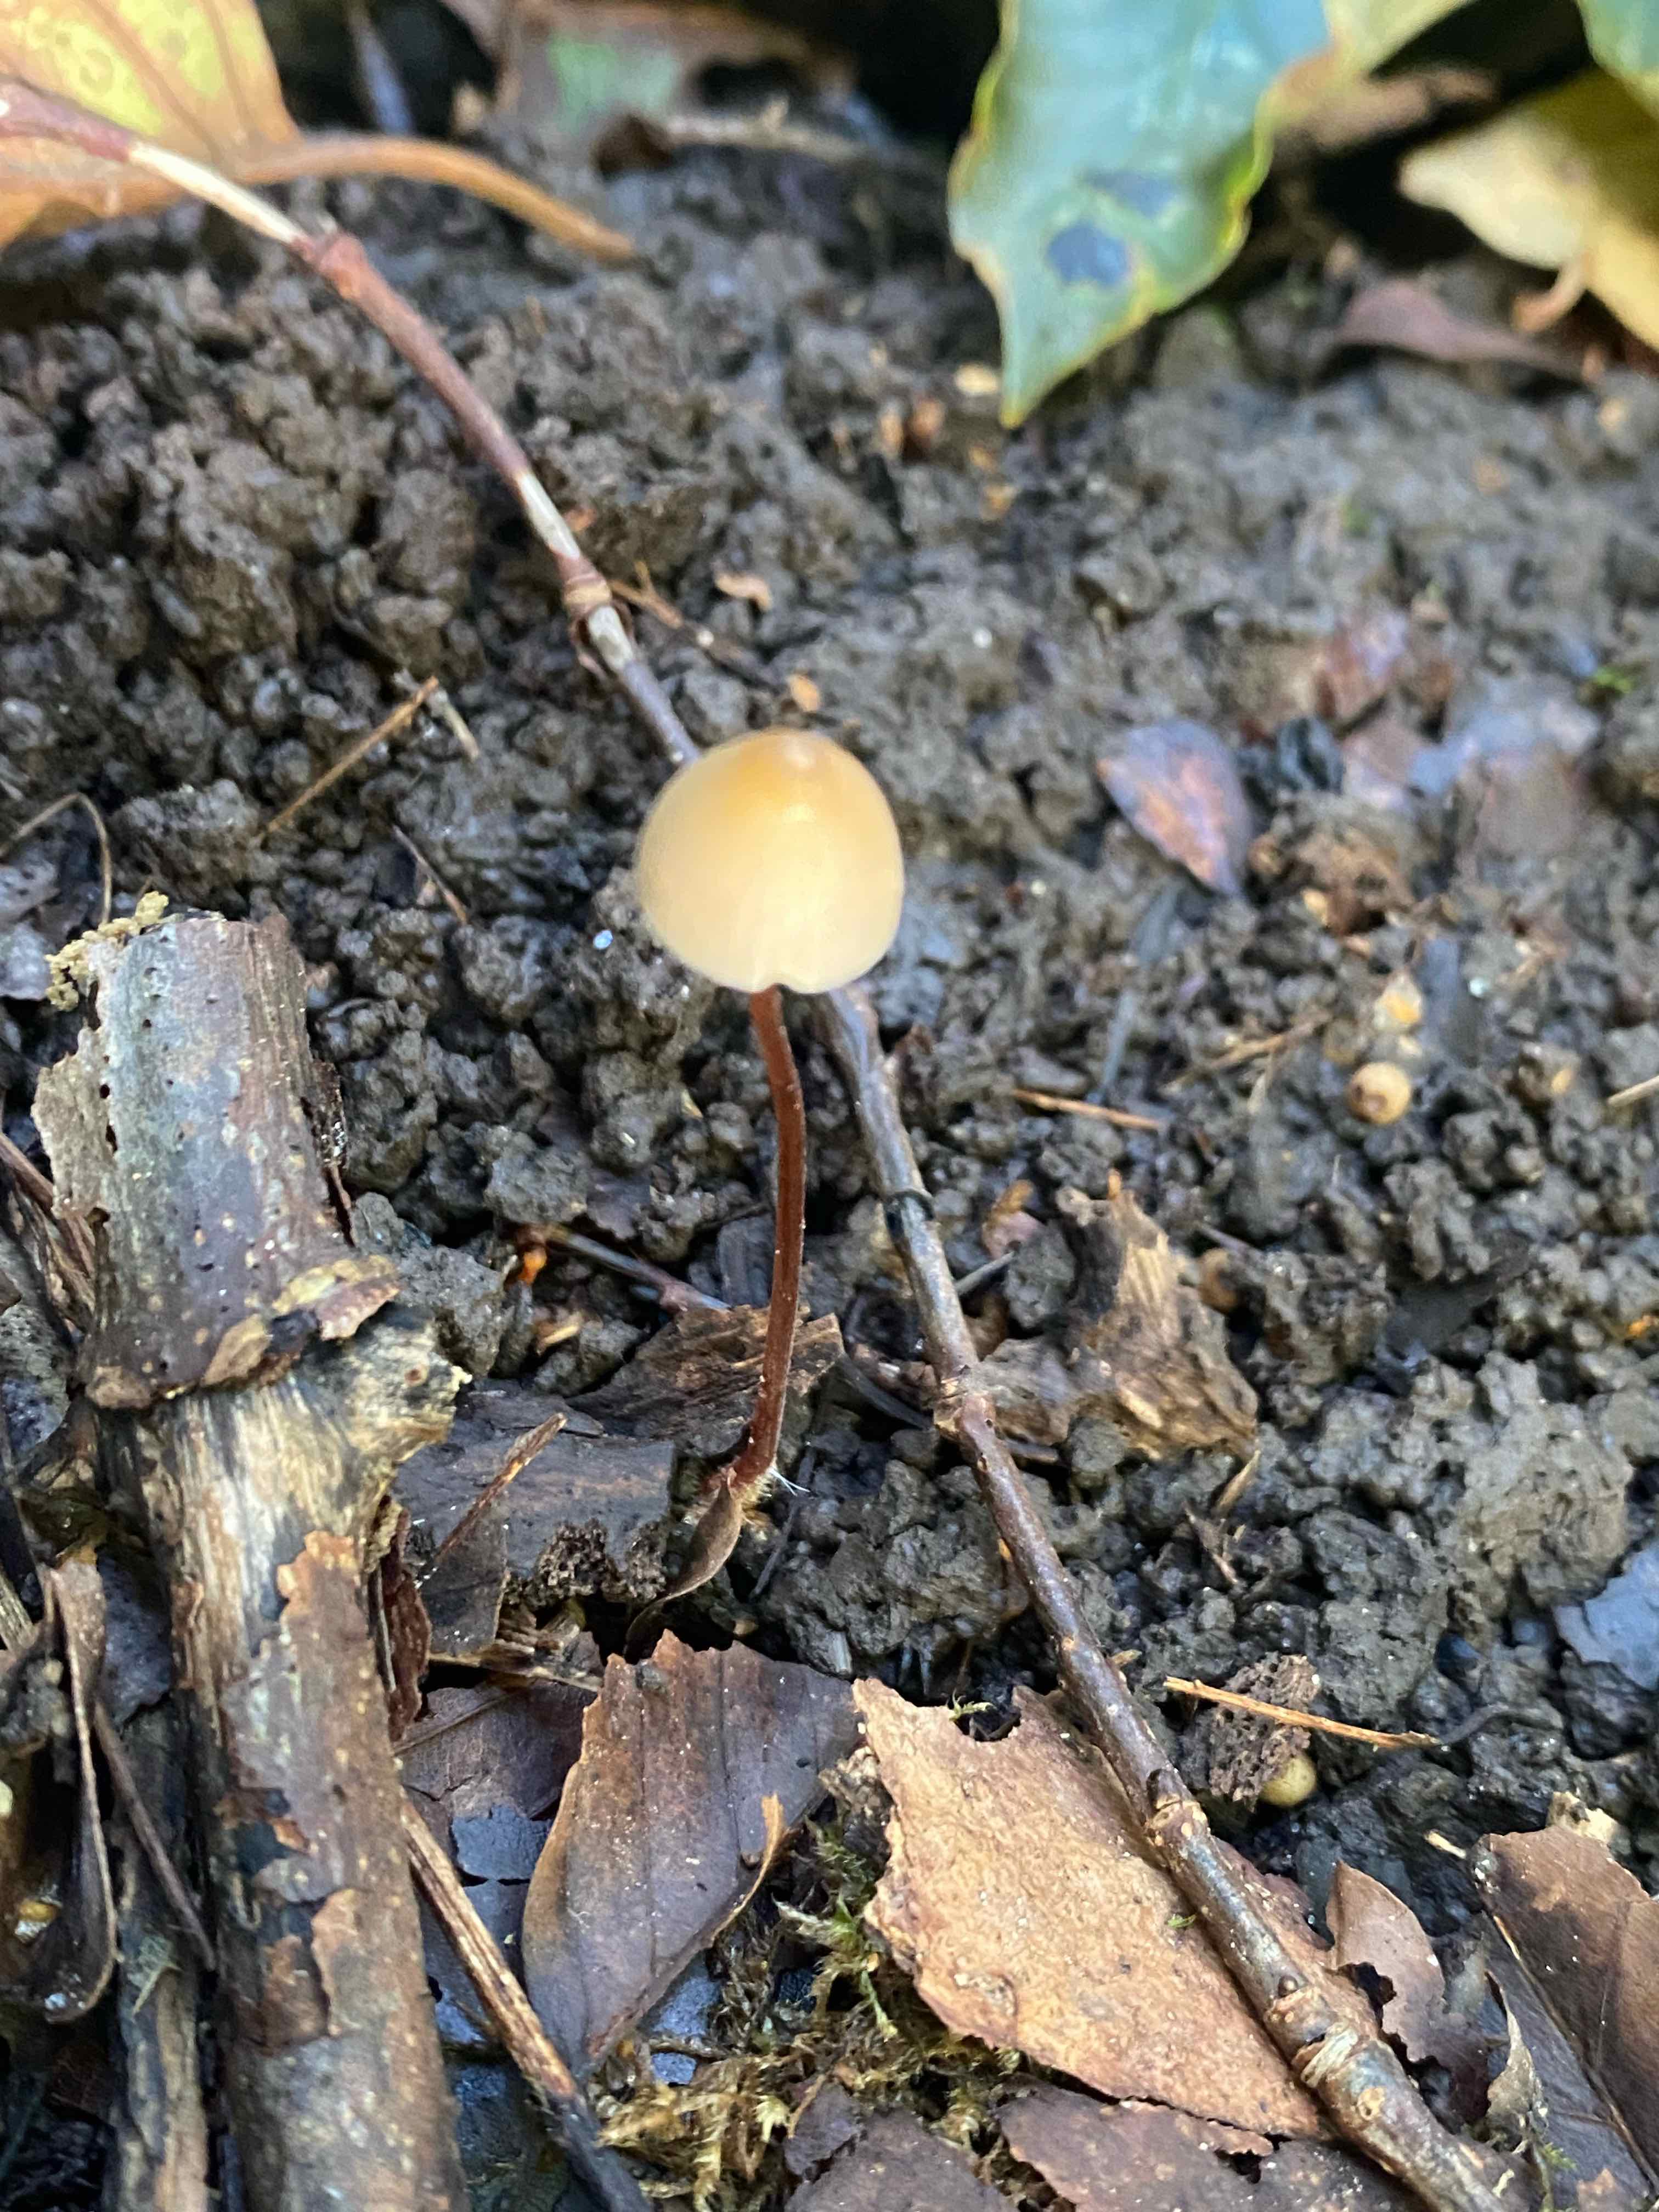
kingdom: Fungi
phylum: Basidiomycota
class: Agaricomycetes
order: Agaricales
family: Mycenaceae
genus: Mycena
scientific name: Mycena crocata
